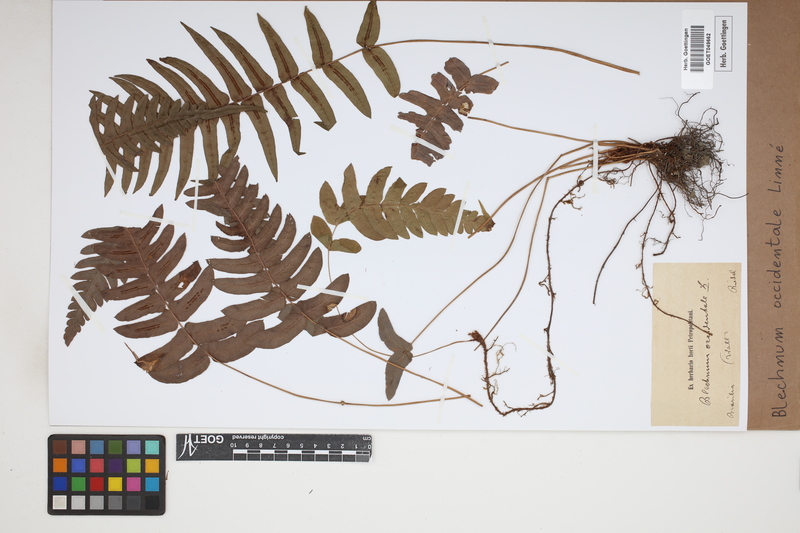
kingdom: Plantae
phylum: Tracheophyta
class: Polypodiopsida
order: Polypodiales
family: Blechnaceae
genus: Blechnum
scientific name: Blechnum occidentale
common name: Hammock fern
